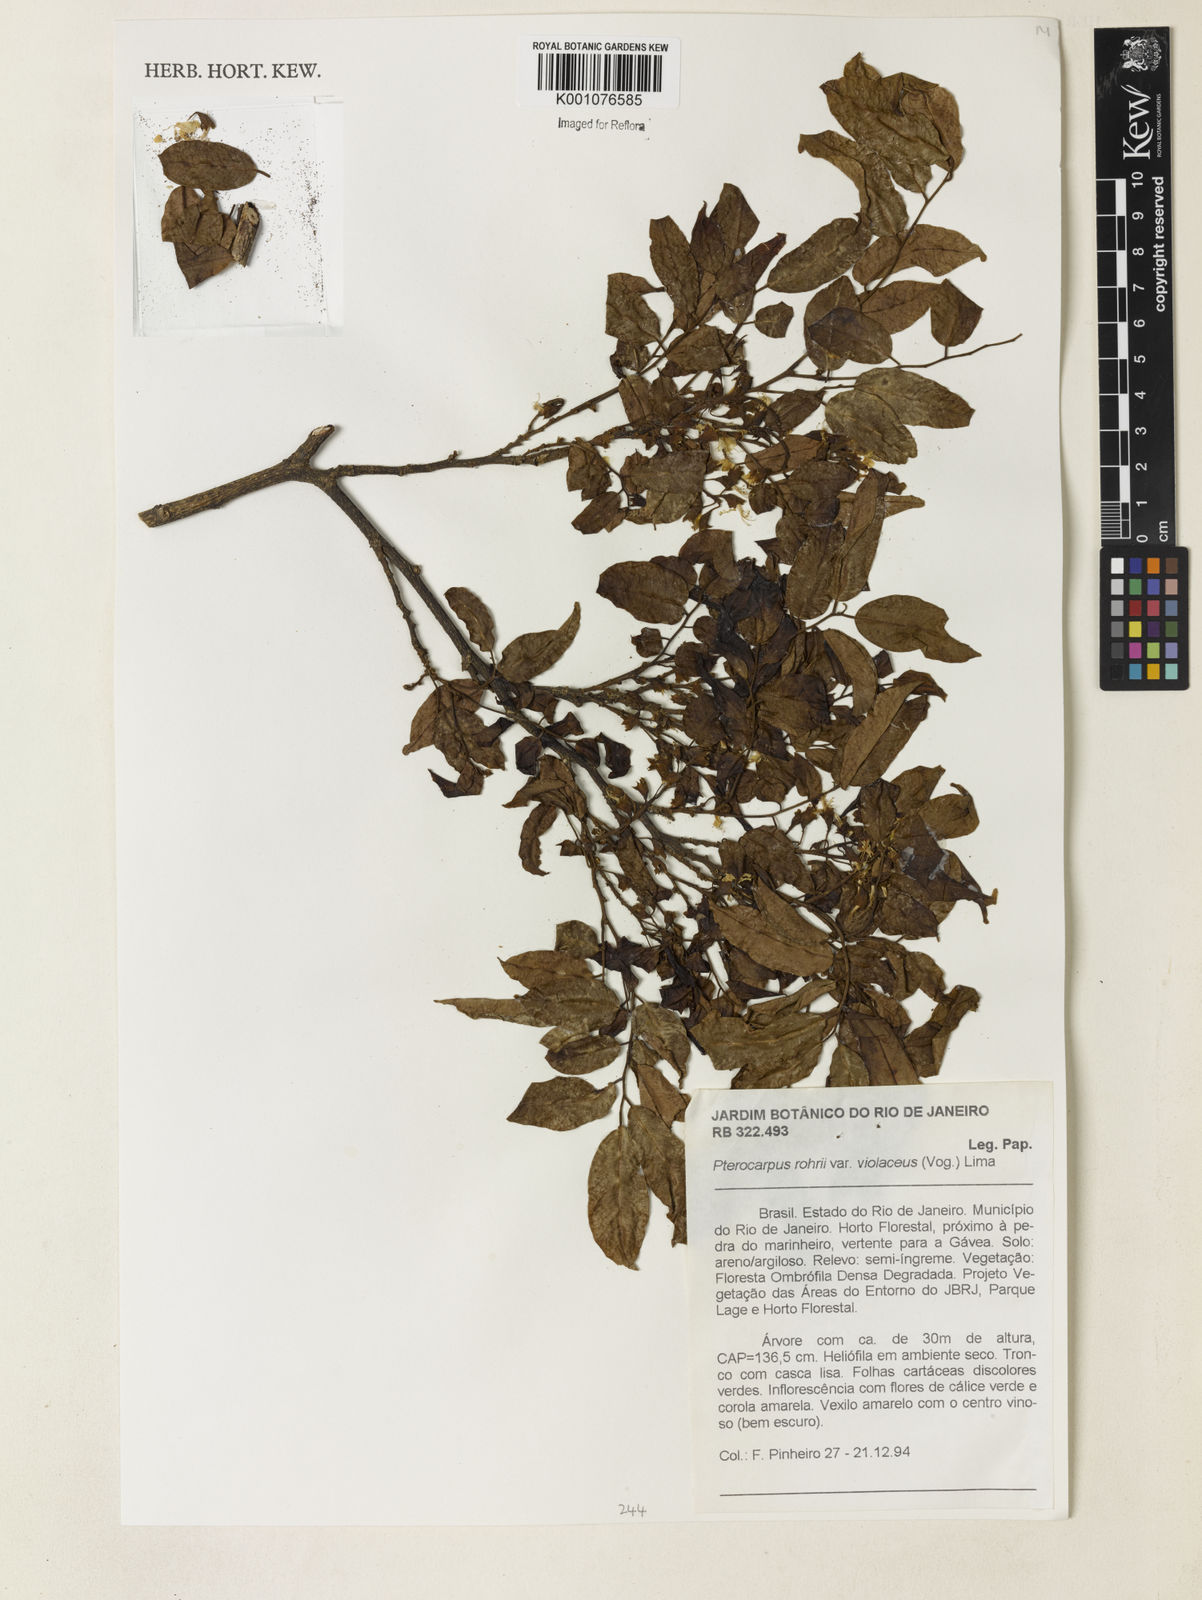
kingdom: Plantae
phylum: Tracheophyta
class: Magnoliopsida
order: Fabales
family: Fabaceae
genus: Pterocarpus
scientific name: Pterocarpus
